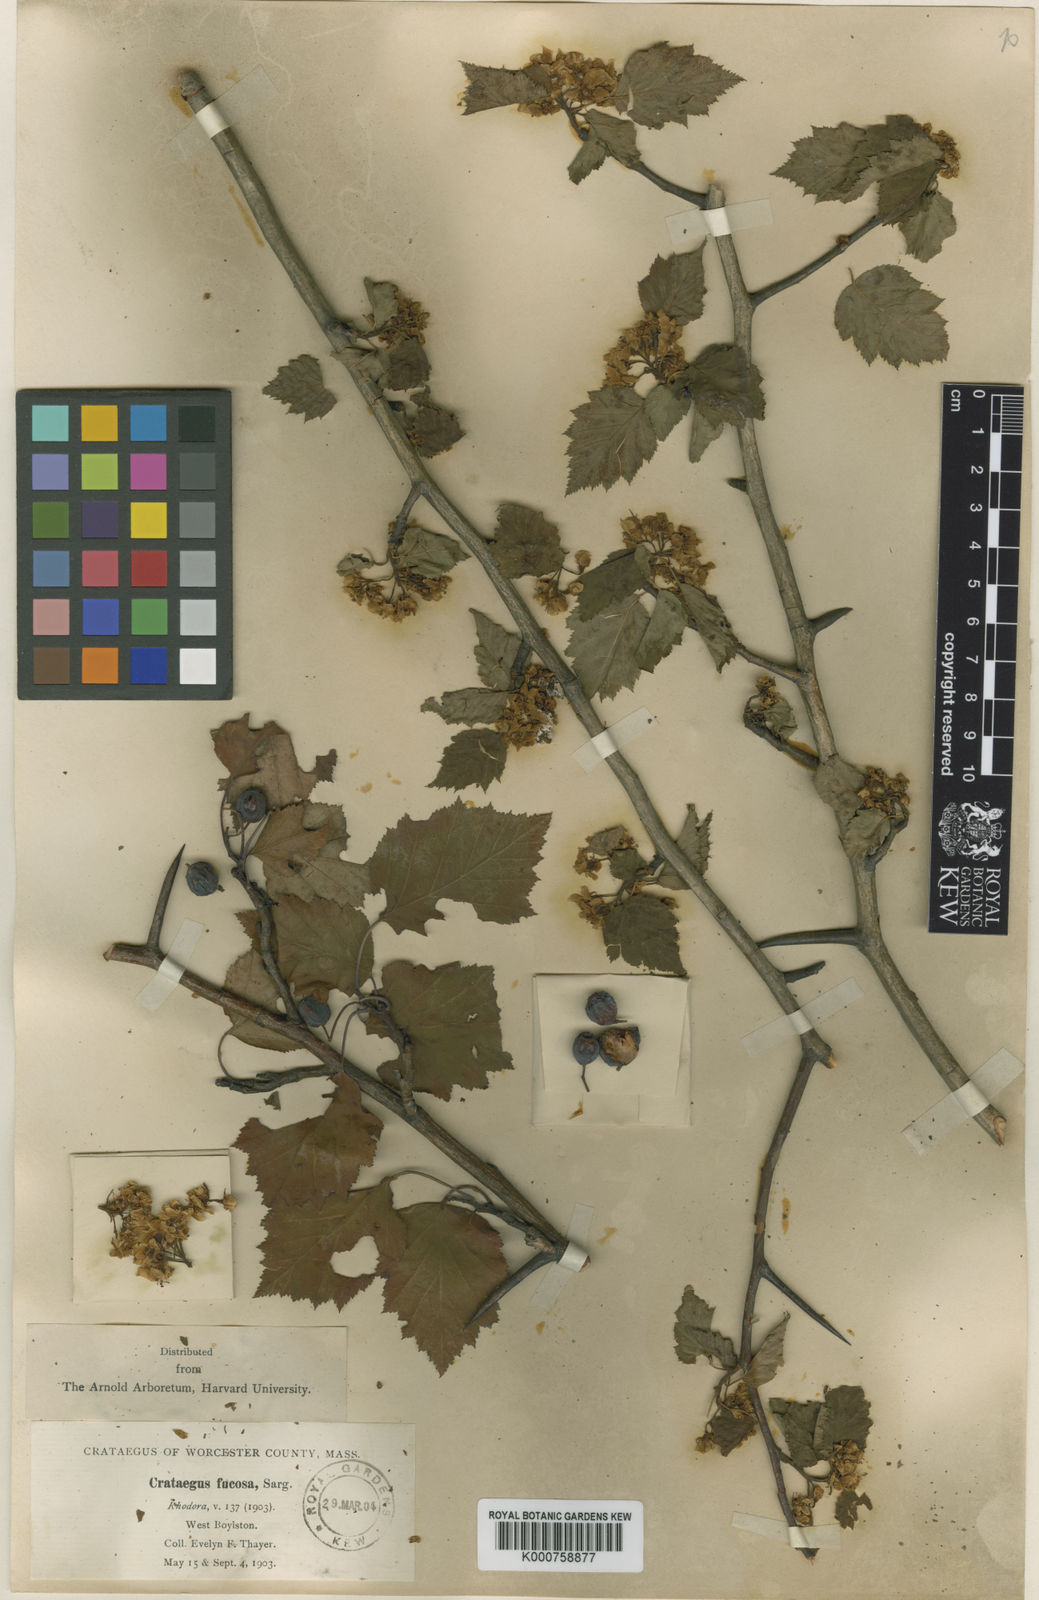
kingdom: Plantae
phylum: Tracheophyta
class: Magnoliopsida
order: Rosales
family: Rosaceae
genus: Crataegus
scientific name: Crataegus fucosa
